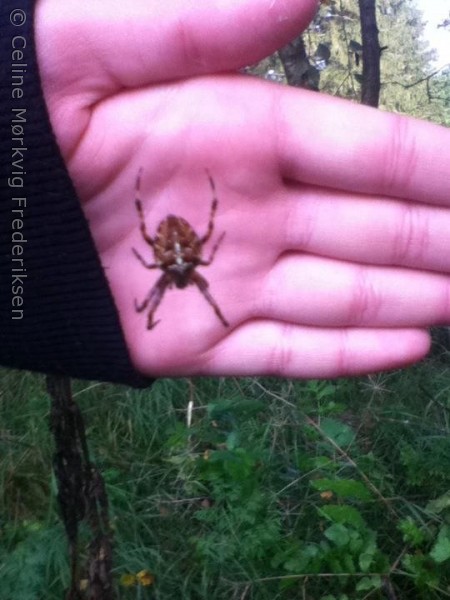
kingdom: Animalia
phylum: Arthropoda
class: Arachnida
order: Araneae
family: Araneidae
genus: Araneus
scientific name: Araneus diadematus
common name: Korsedderkop
